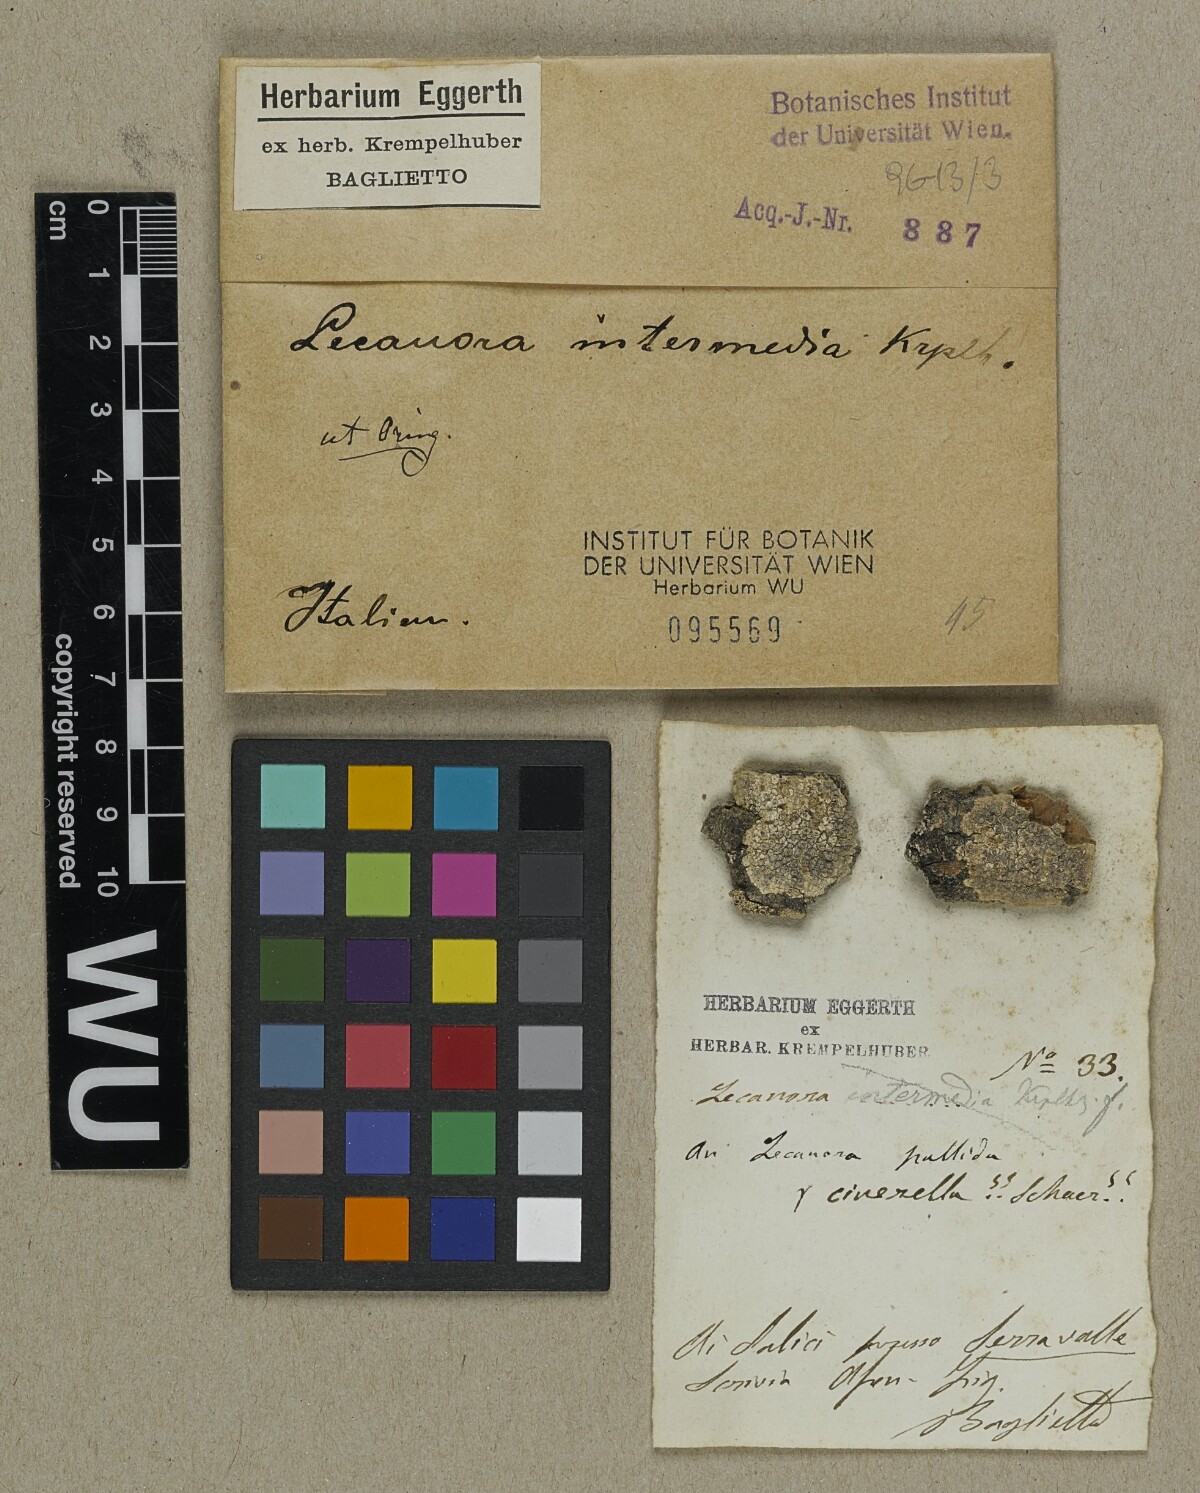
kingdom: Fungi
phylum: Ascomycota
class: Lecanoromycetes
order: Lecanorales
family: Lecanoraceae
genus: Lecanora
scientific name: Lecanora
